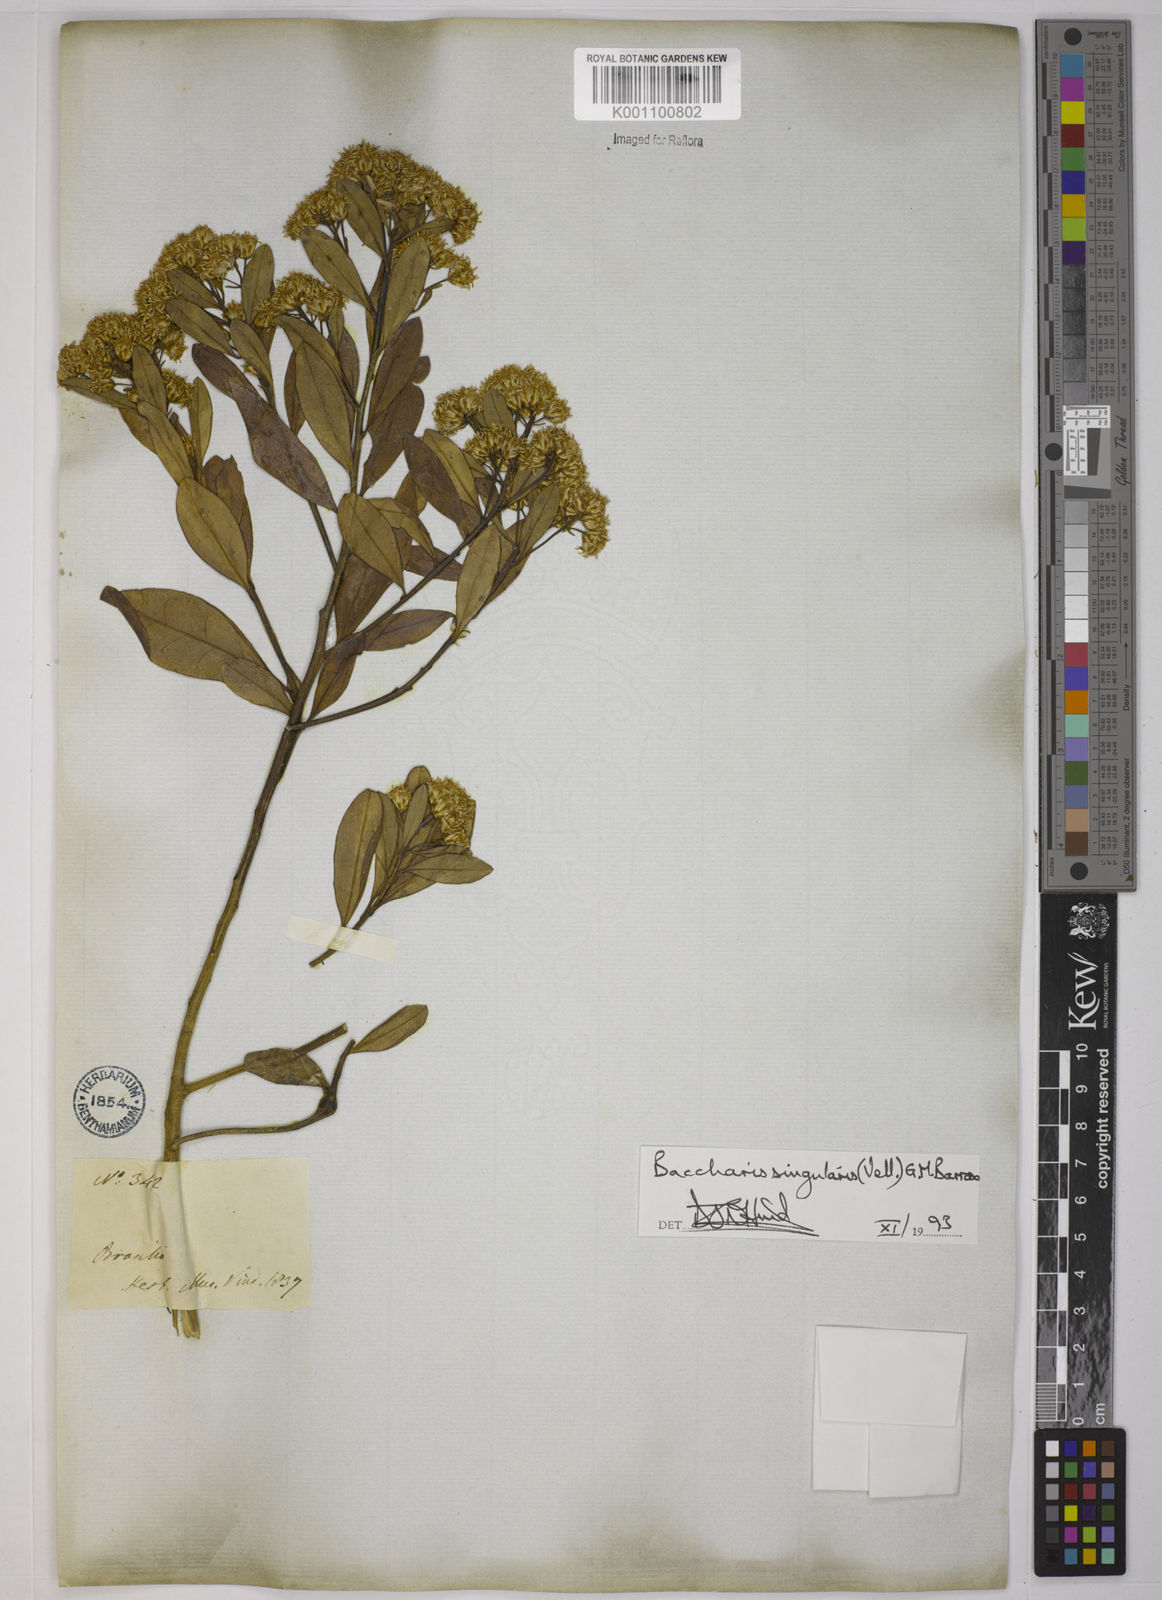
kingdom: Plantae
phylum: Tracheophyta
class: Magnoliopsida
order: Asterales
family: Asteraceae
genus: Baccharis
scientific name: Baccharis
